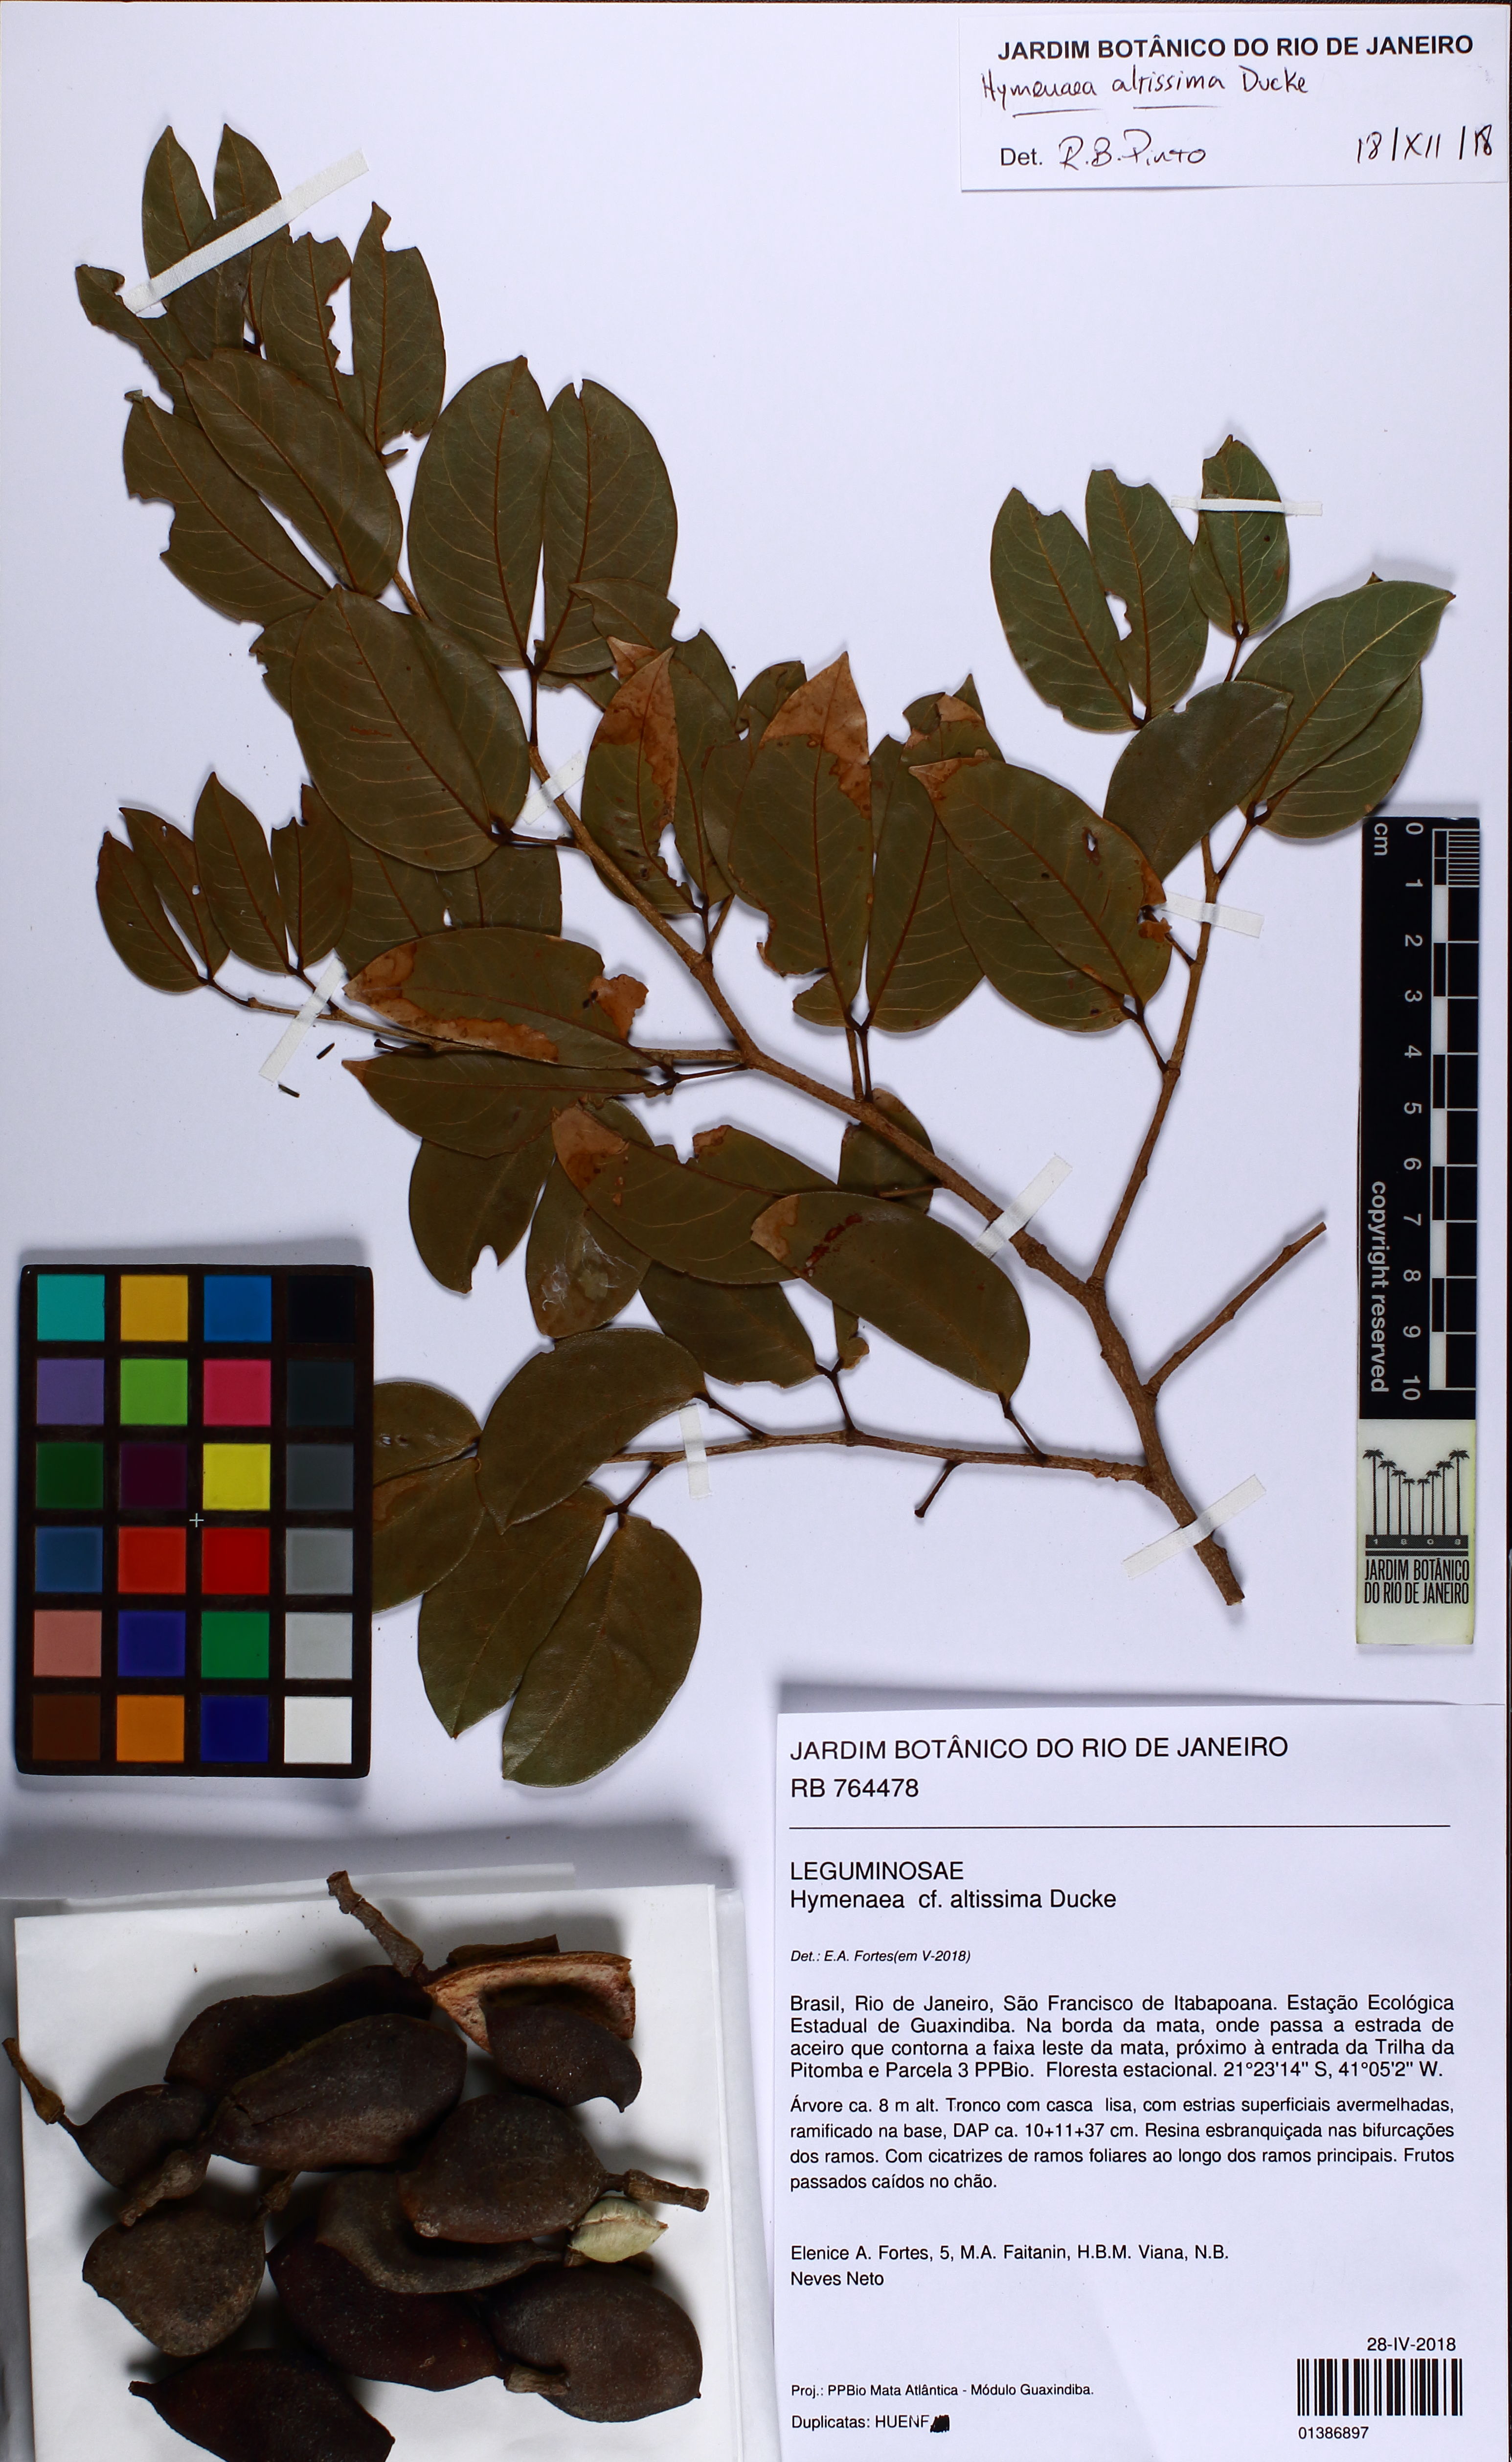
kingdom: Plantae
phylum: Tracheophyta
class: Magnoliopsida
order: Fabales
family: Fabaceae
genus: Hymenaea
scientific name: Hymenaea altissima
